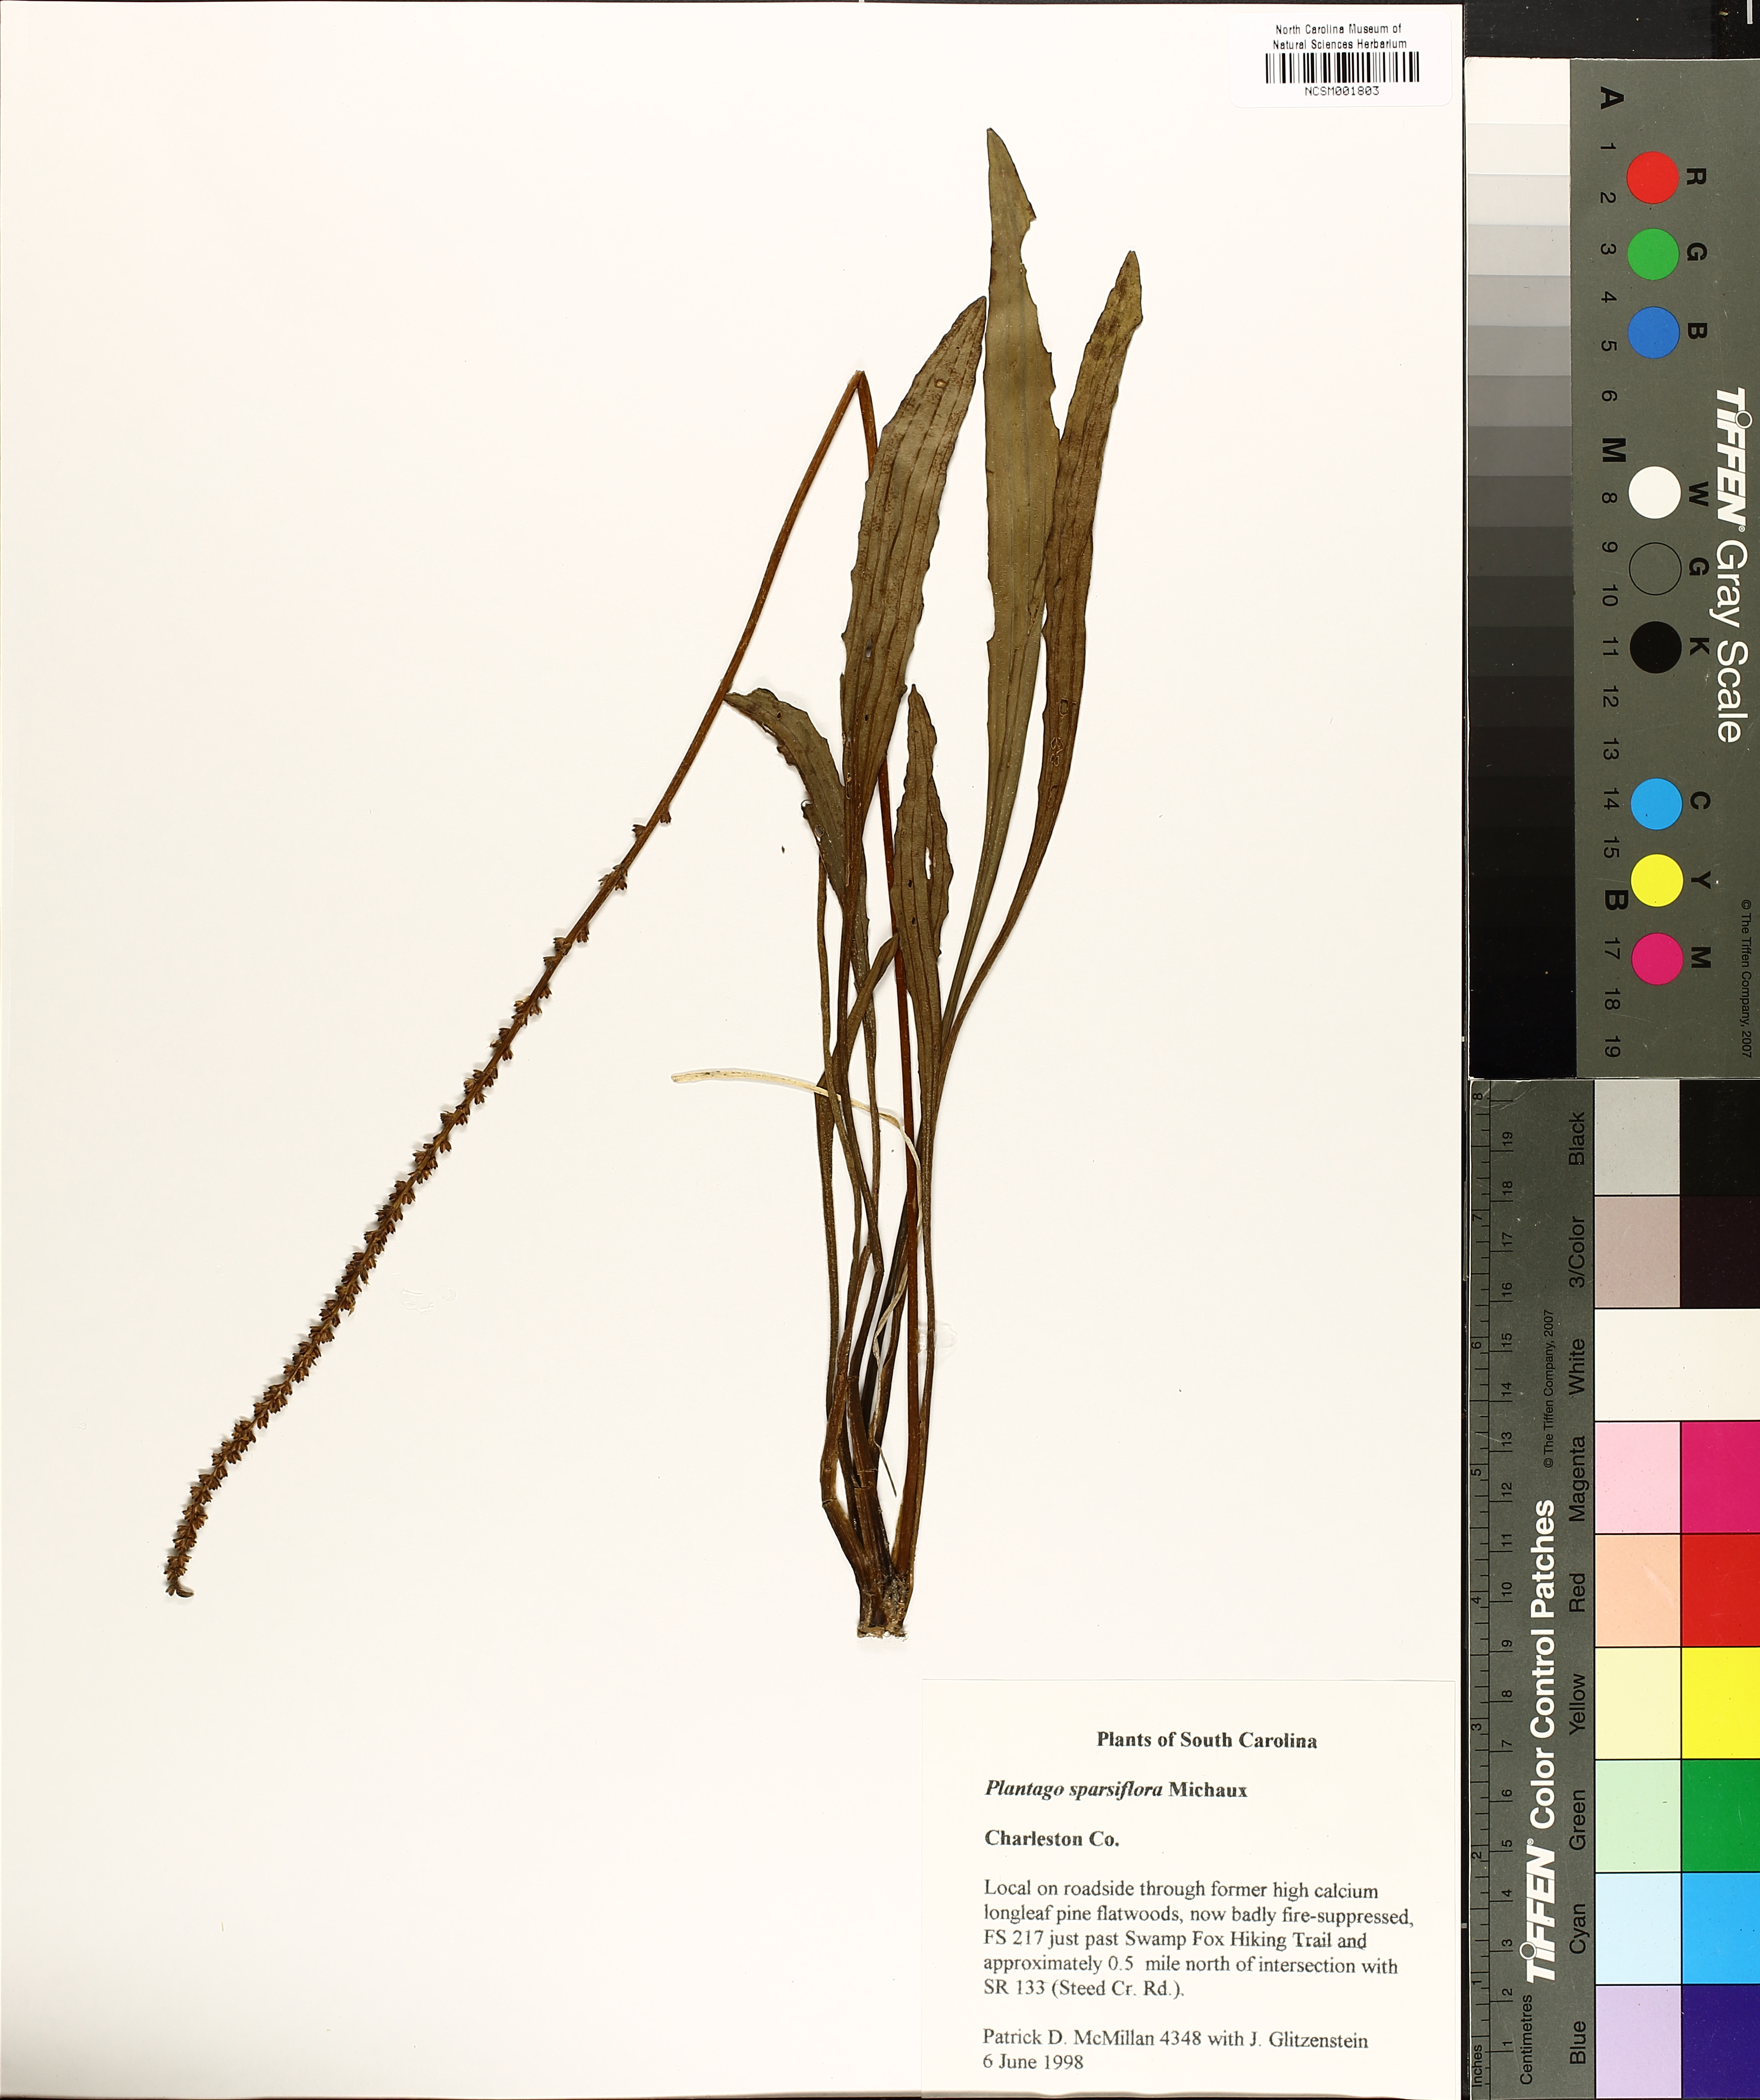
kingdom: Plantae
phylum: Tracheophyta
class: Magnoliopsida
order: Lamiales
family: Plantaginaceae
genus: Plantago
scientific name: Plantago sparsiflora
